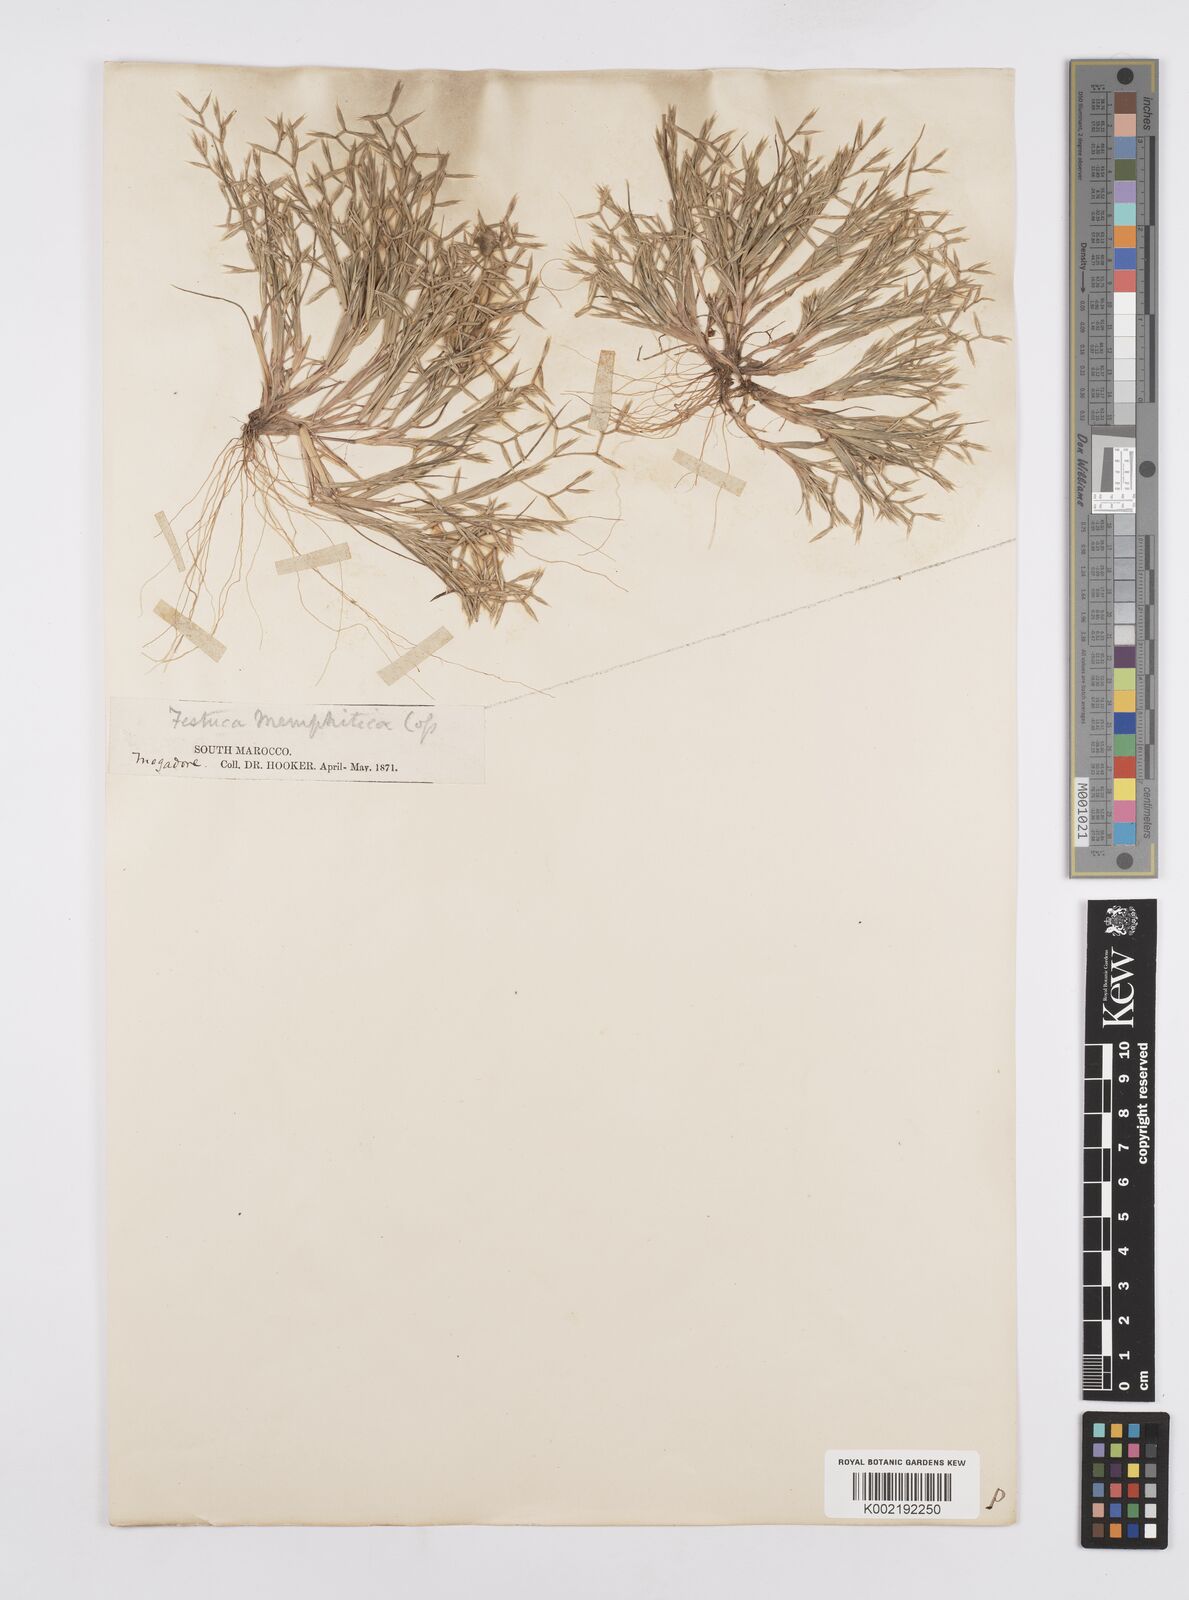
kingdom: Plantae
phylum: Tracheophyta
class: Liliopsida
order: Poales
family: Poaceae
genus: Cutandia
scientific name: Cutandia memphitica
